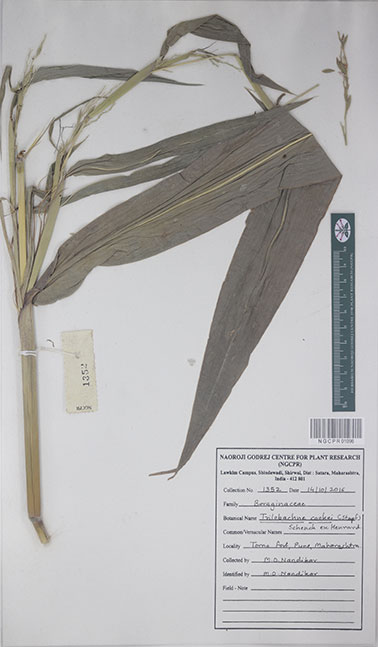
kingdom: Plantae
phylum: Tracheophyta
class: Liliopsida
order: Poales
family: Poaceae
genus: Trilobachne
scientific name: Trilobachne cookei
